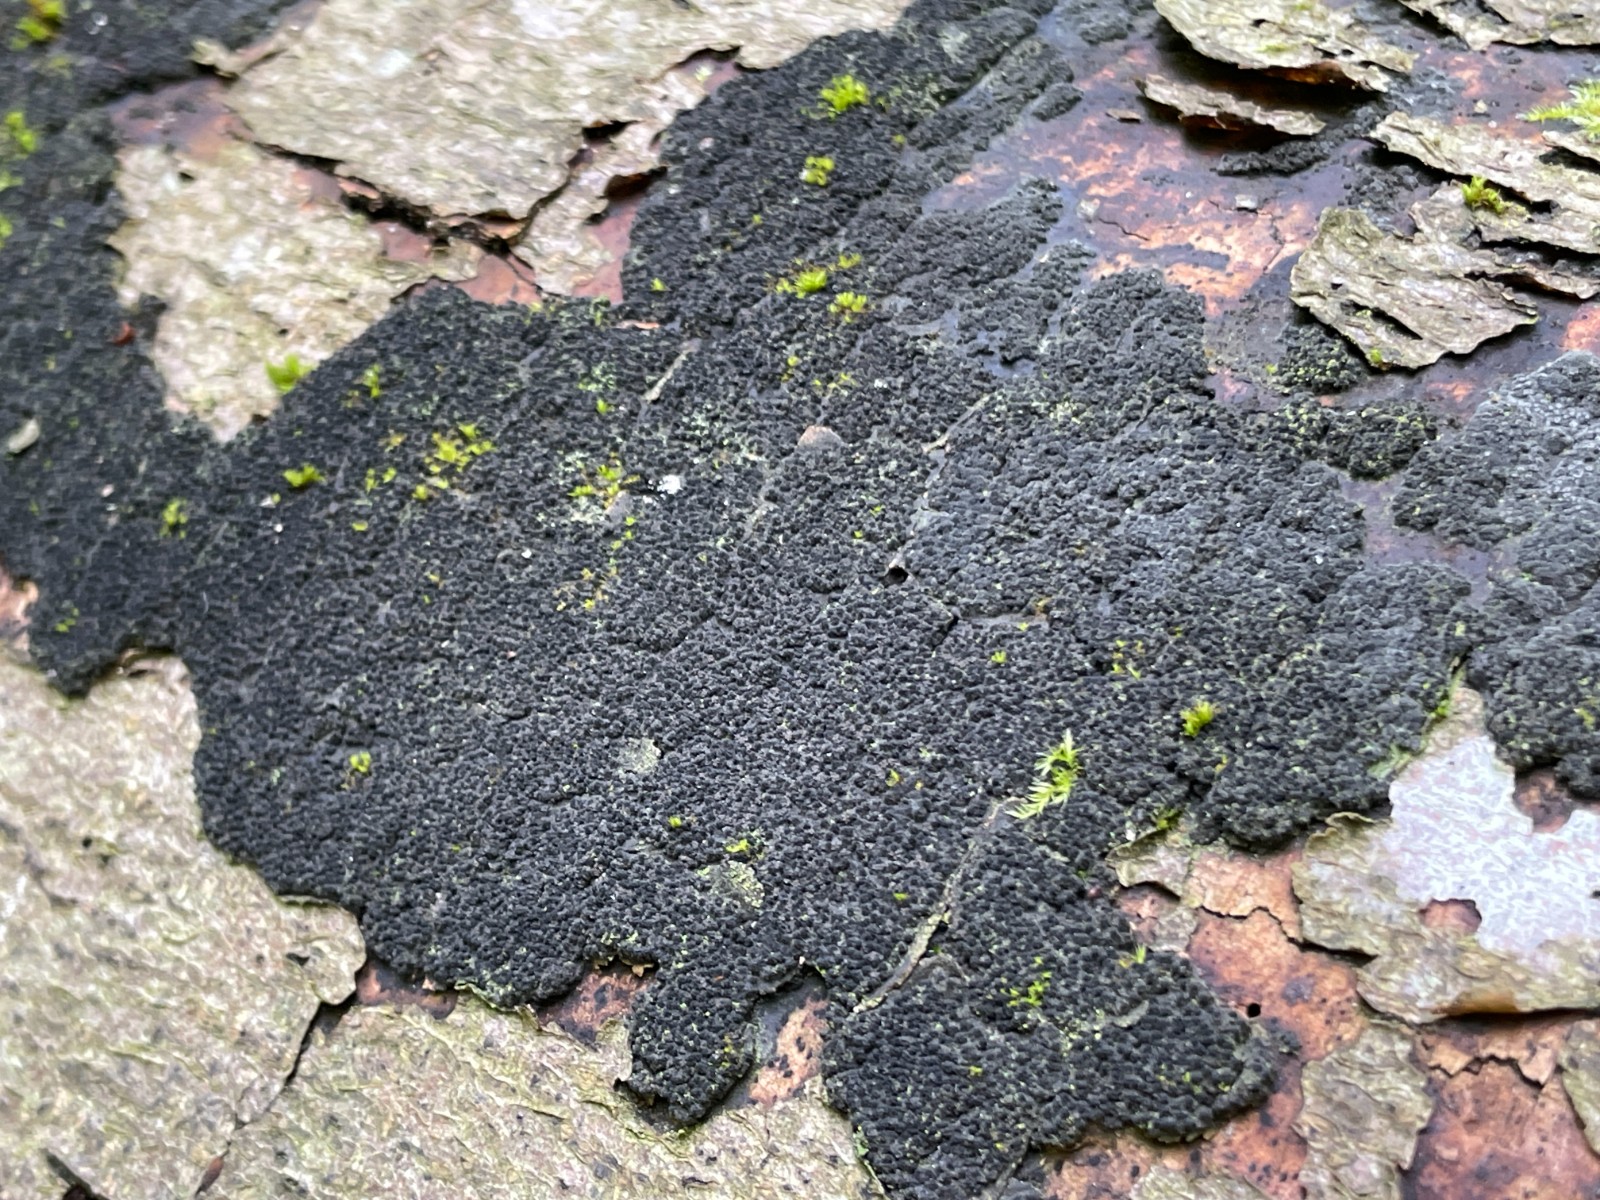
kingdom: Fungi
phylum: Ascomycota
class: Sordariomycetes
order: Xylariales
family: Diatrypaceae
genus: Eutypa
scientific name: Eutypa spinosa
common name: grov kulskorpe
